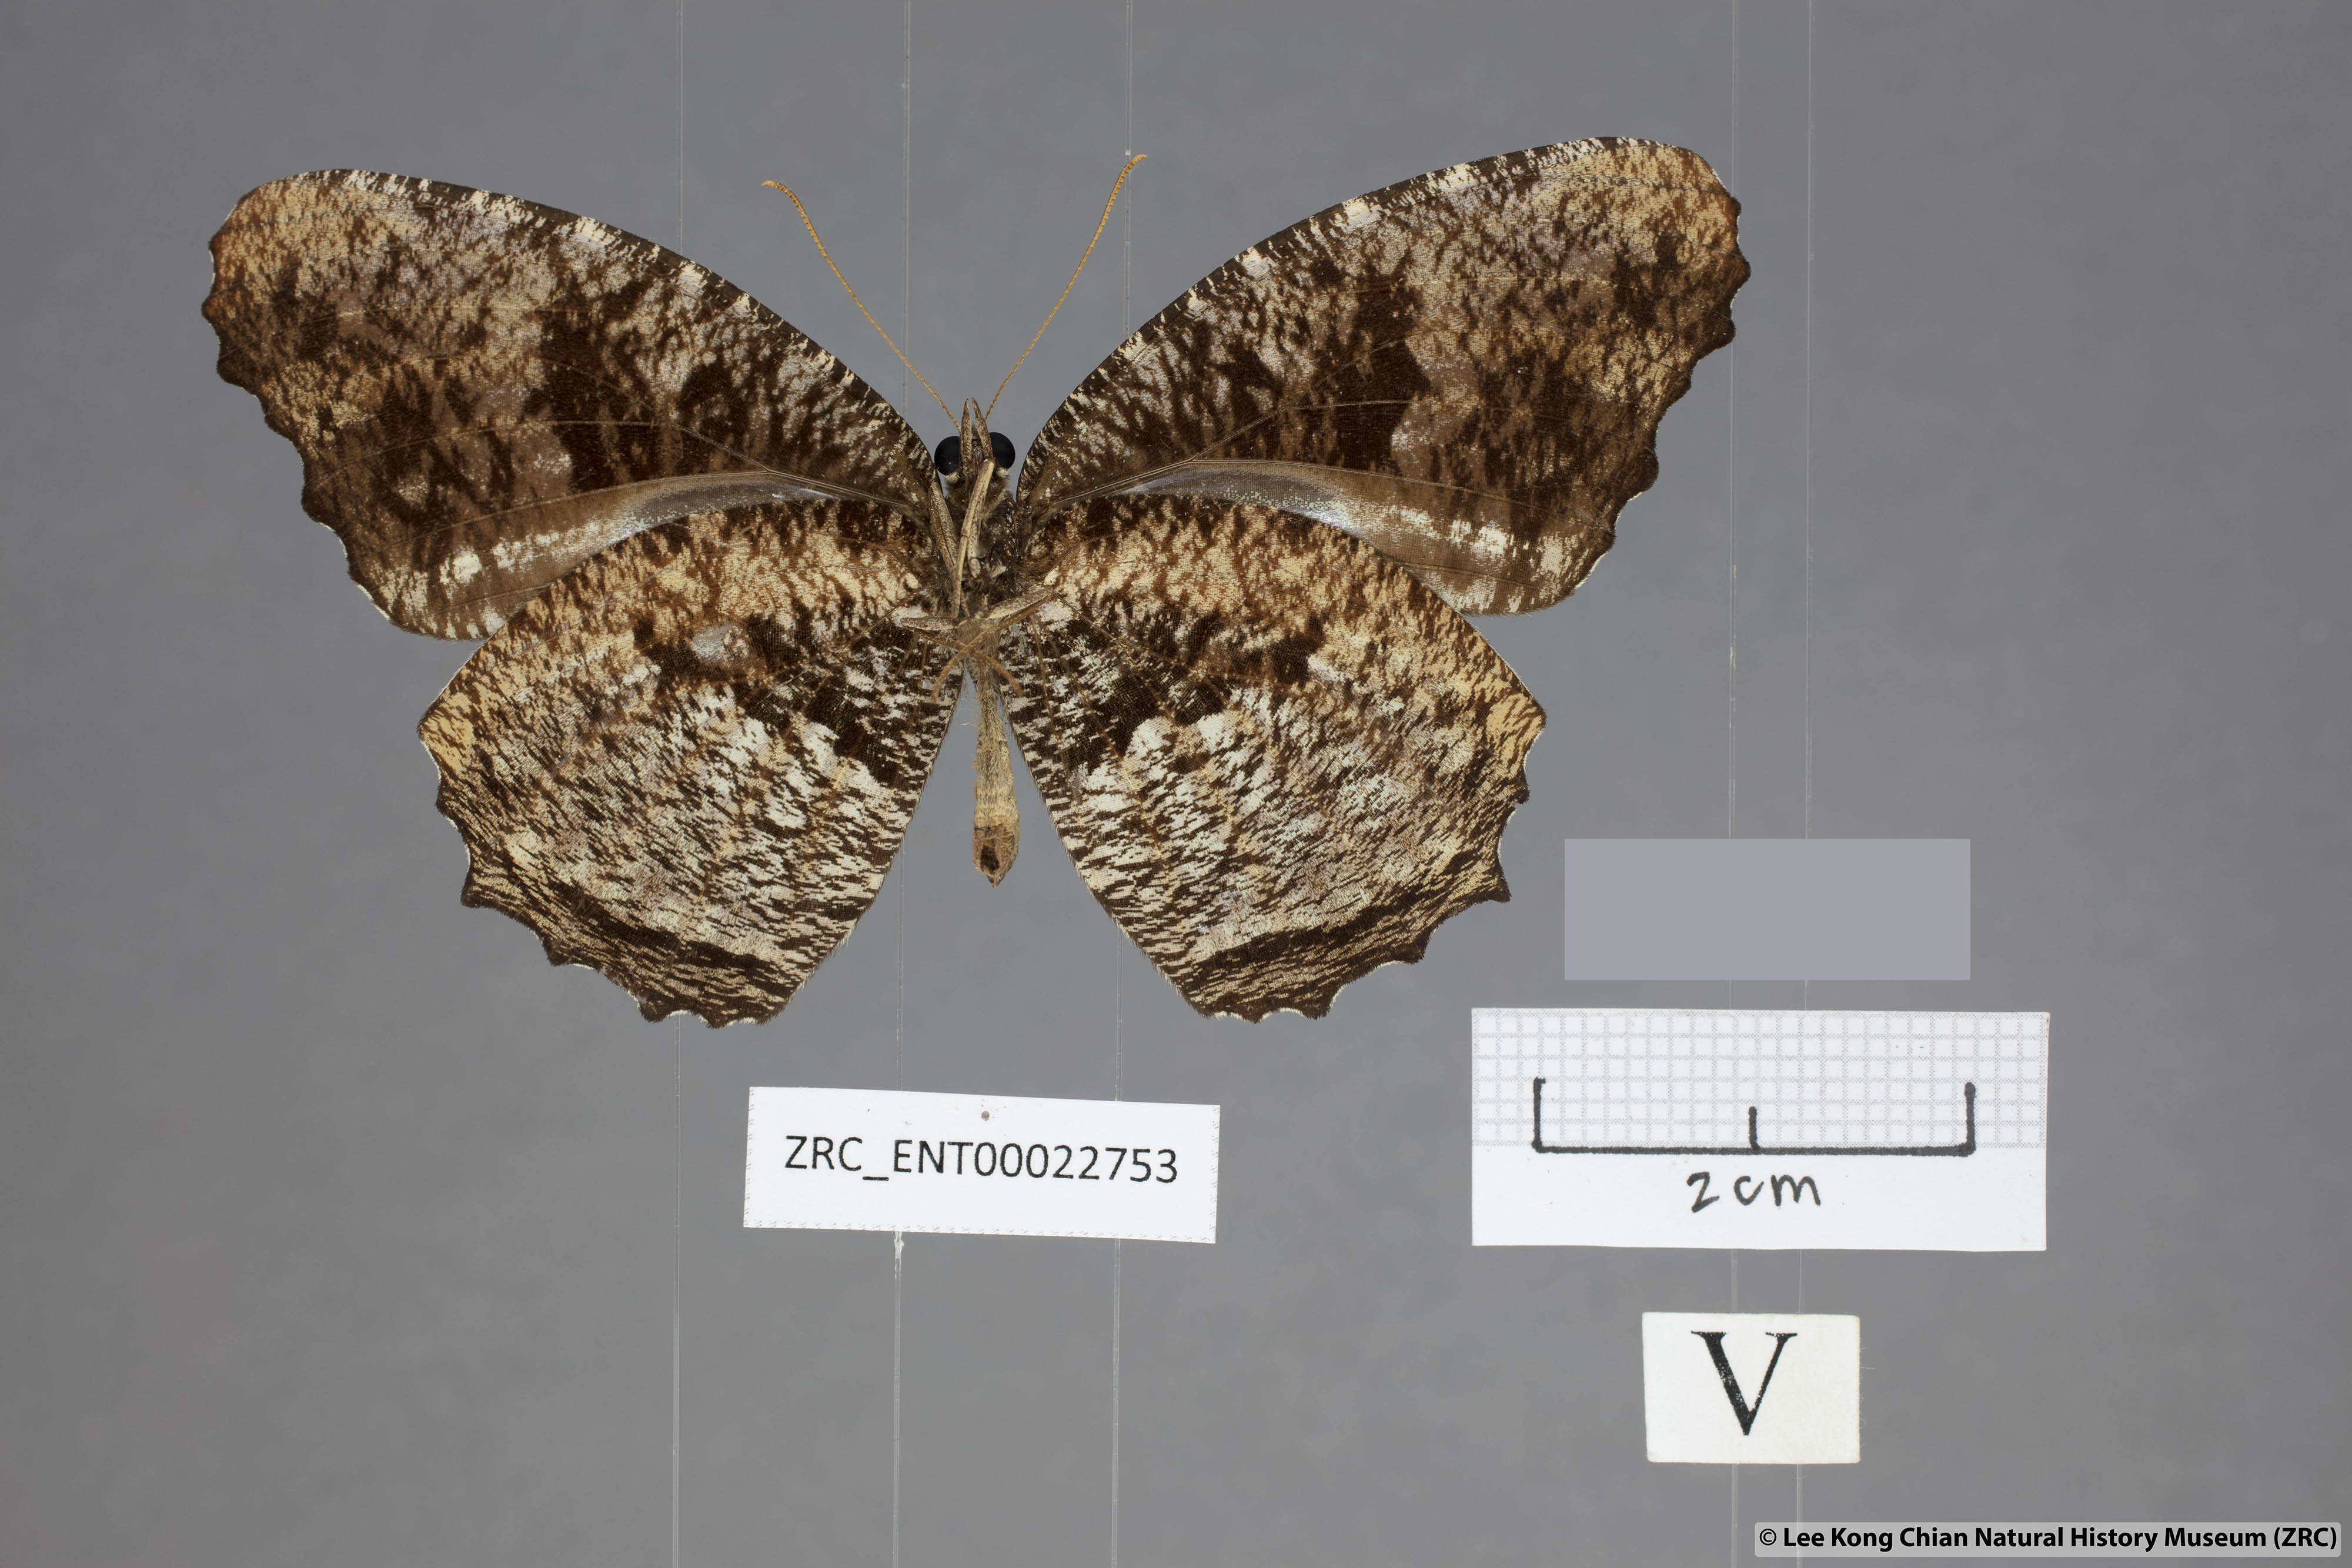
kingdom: Animalia
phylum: Arthropoda
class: Insecta
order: Lepidoptera
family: Nymphalidae
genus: Elymnias
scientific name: Elymnias nesaea
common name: Tiger palmfly
